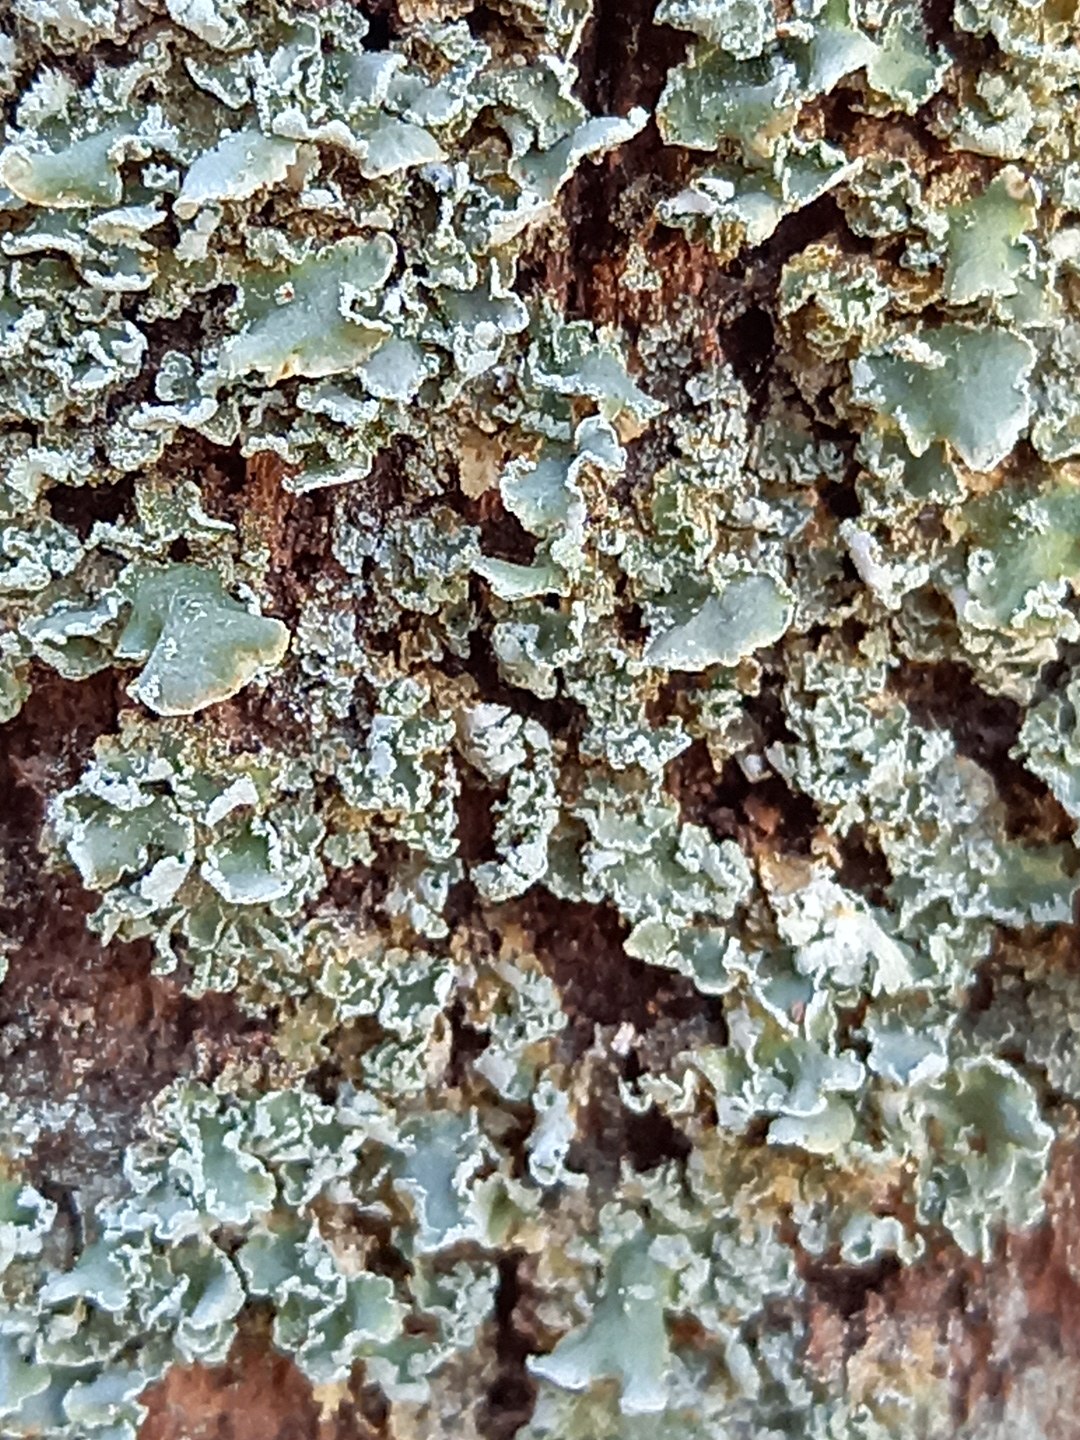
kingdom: Fungi
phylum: Ascomycota
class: Lecanoromycetes
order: Lecanorales
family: Cladoniaceae
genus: Cladonia
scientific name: Cladonia
